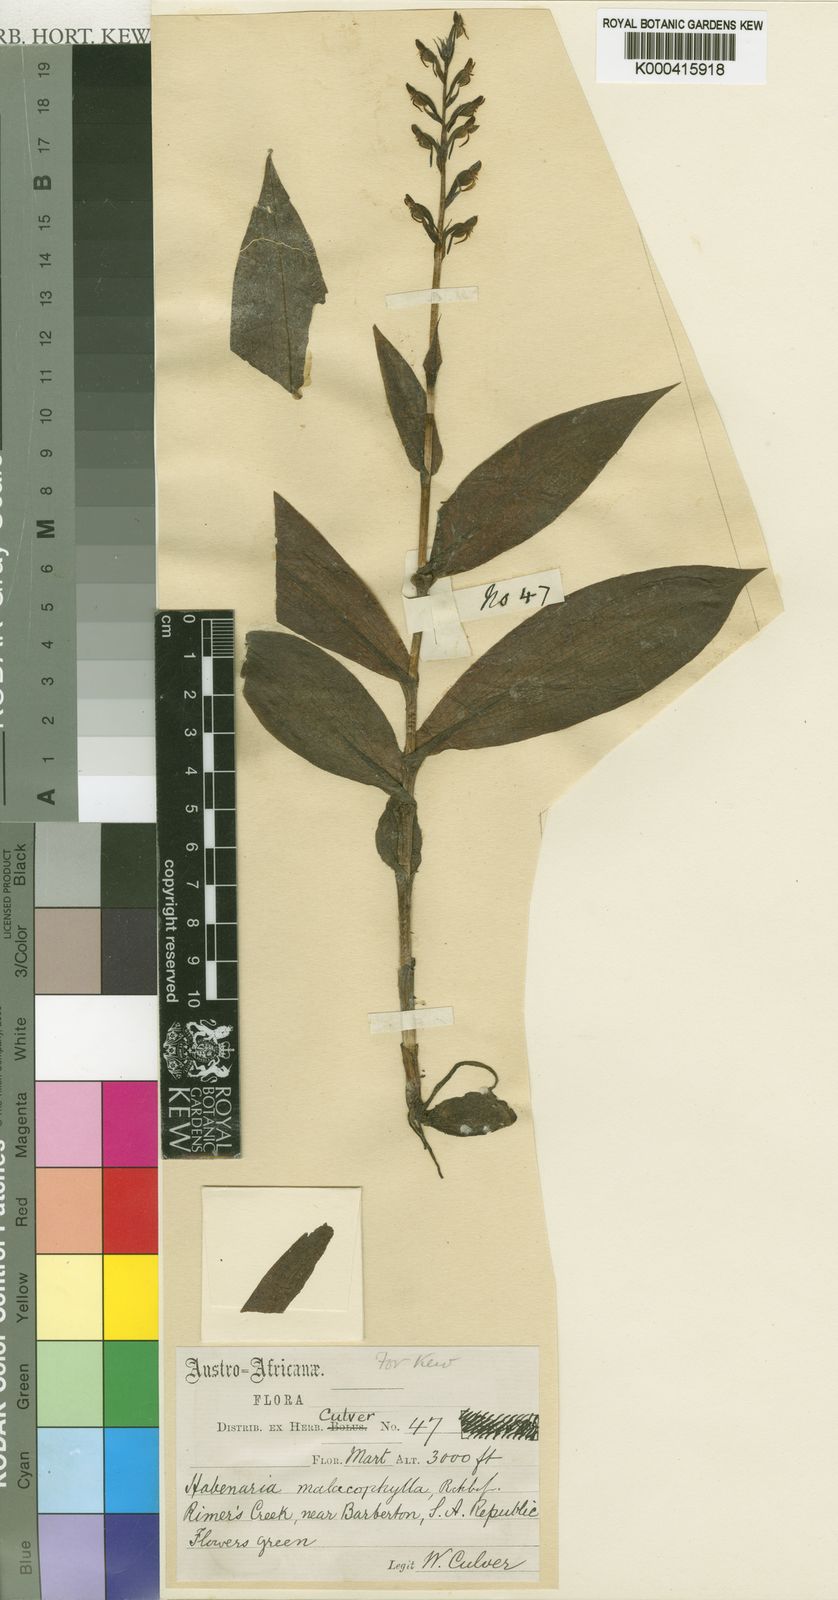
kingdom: Plantae
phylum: Tracheophyta
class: Liliopsida
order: Asparagales
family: Orchidaceae
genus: Habenaria
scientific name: Habenaria culveri
